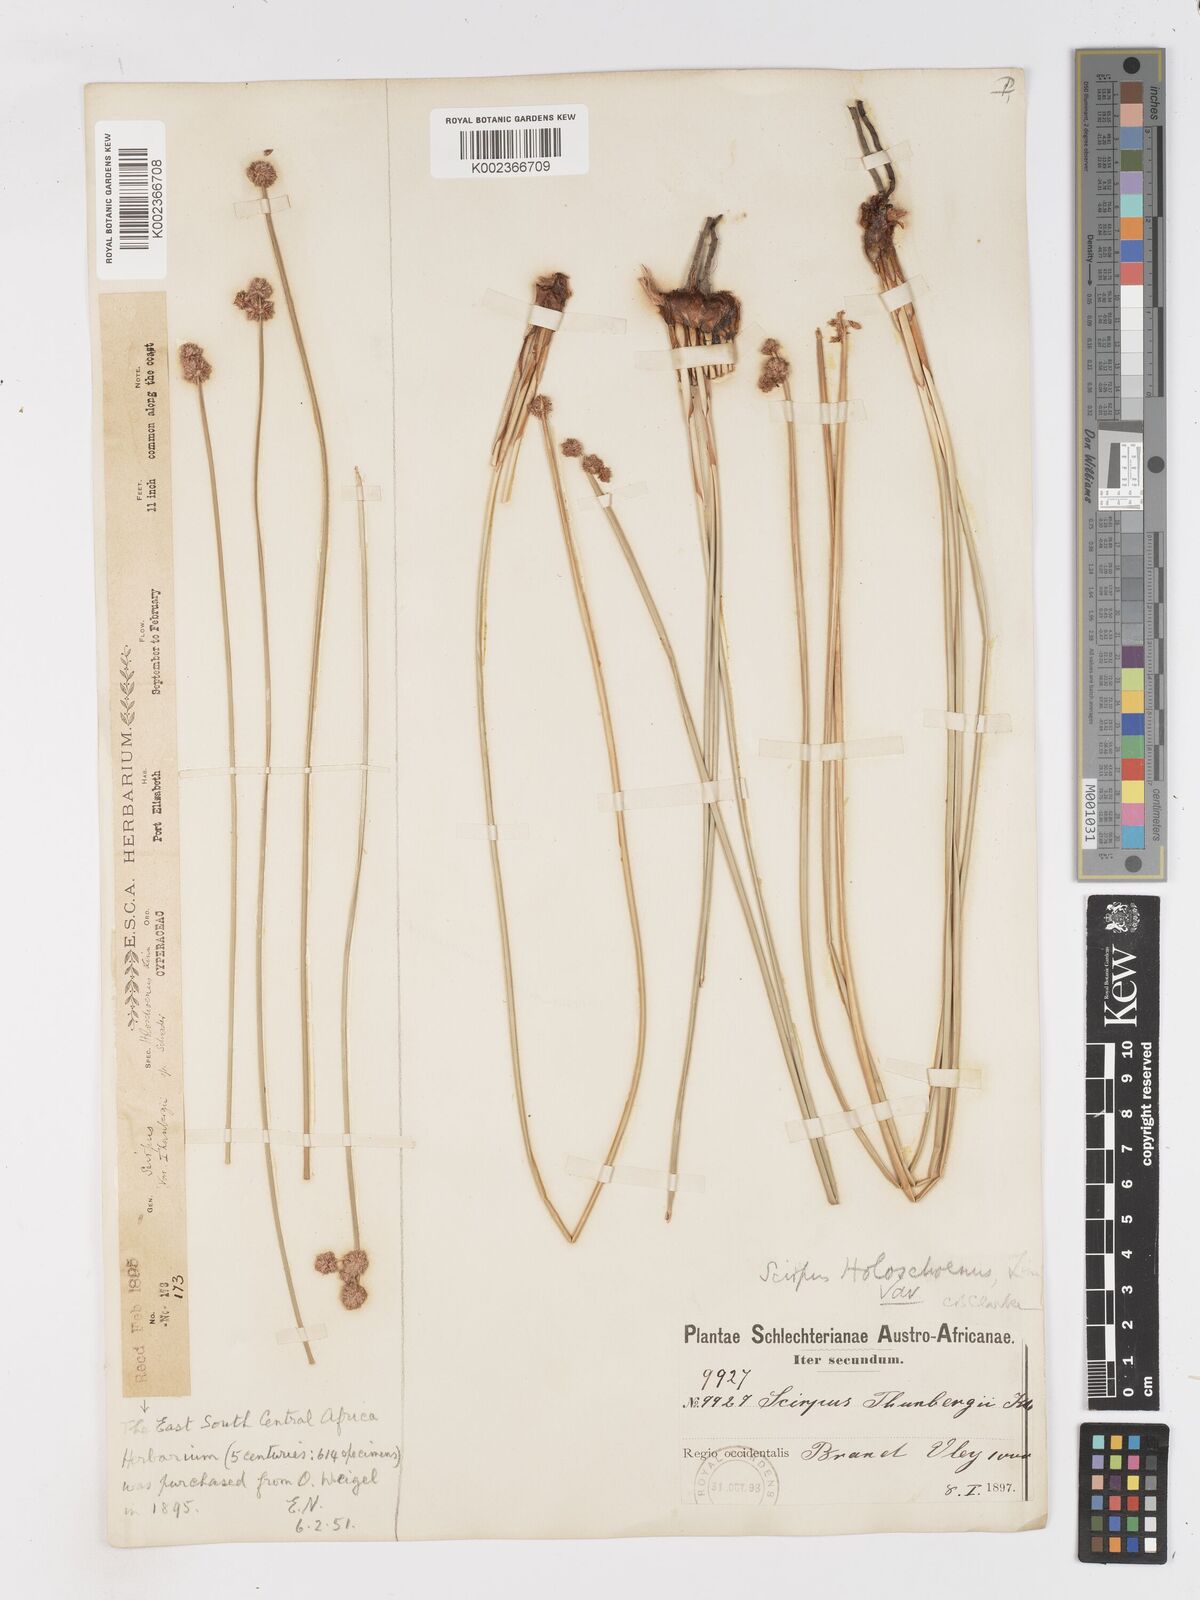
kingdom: Plantae
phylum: Tracheophyta
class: Liliopsida
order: Poales
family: Cyperaceae
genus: Scirpoides
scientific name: Scirpoides holoschoenus
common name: Round-headed club-rush
